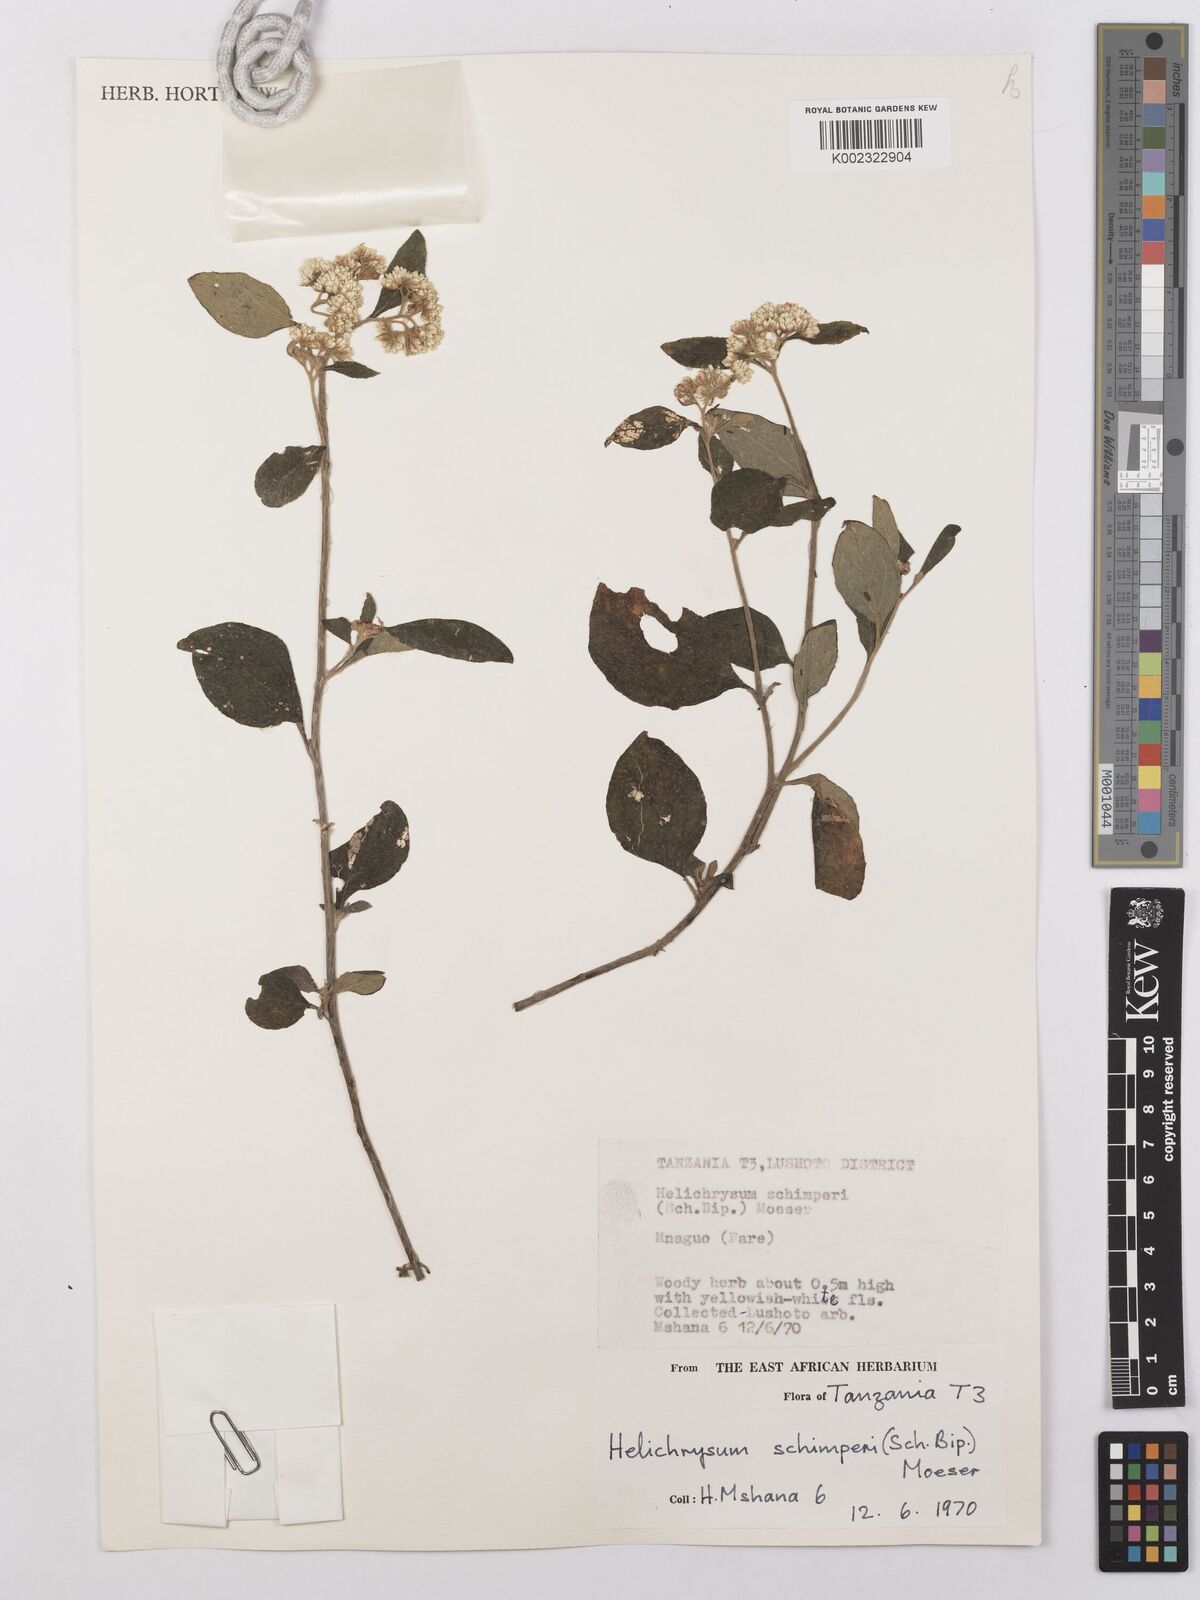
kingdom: Plantae
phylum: Tracheophyta
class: Magnoliopsida
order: Asterales
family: Asteraceae
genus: Helichrysum
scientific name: Helichrysum schimperi
